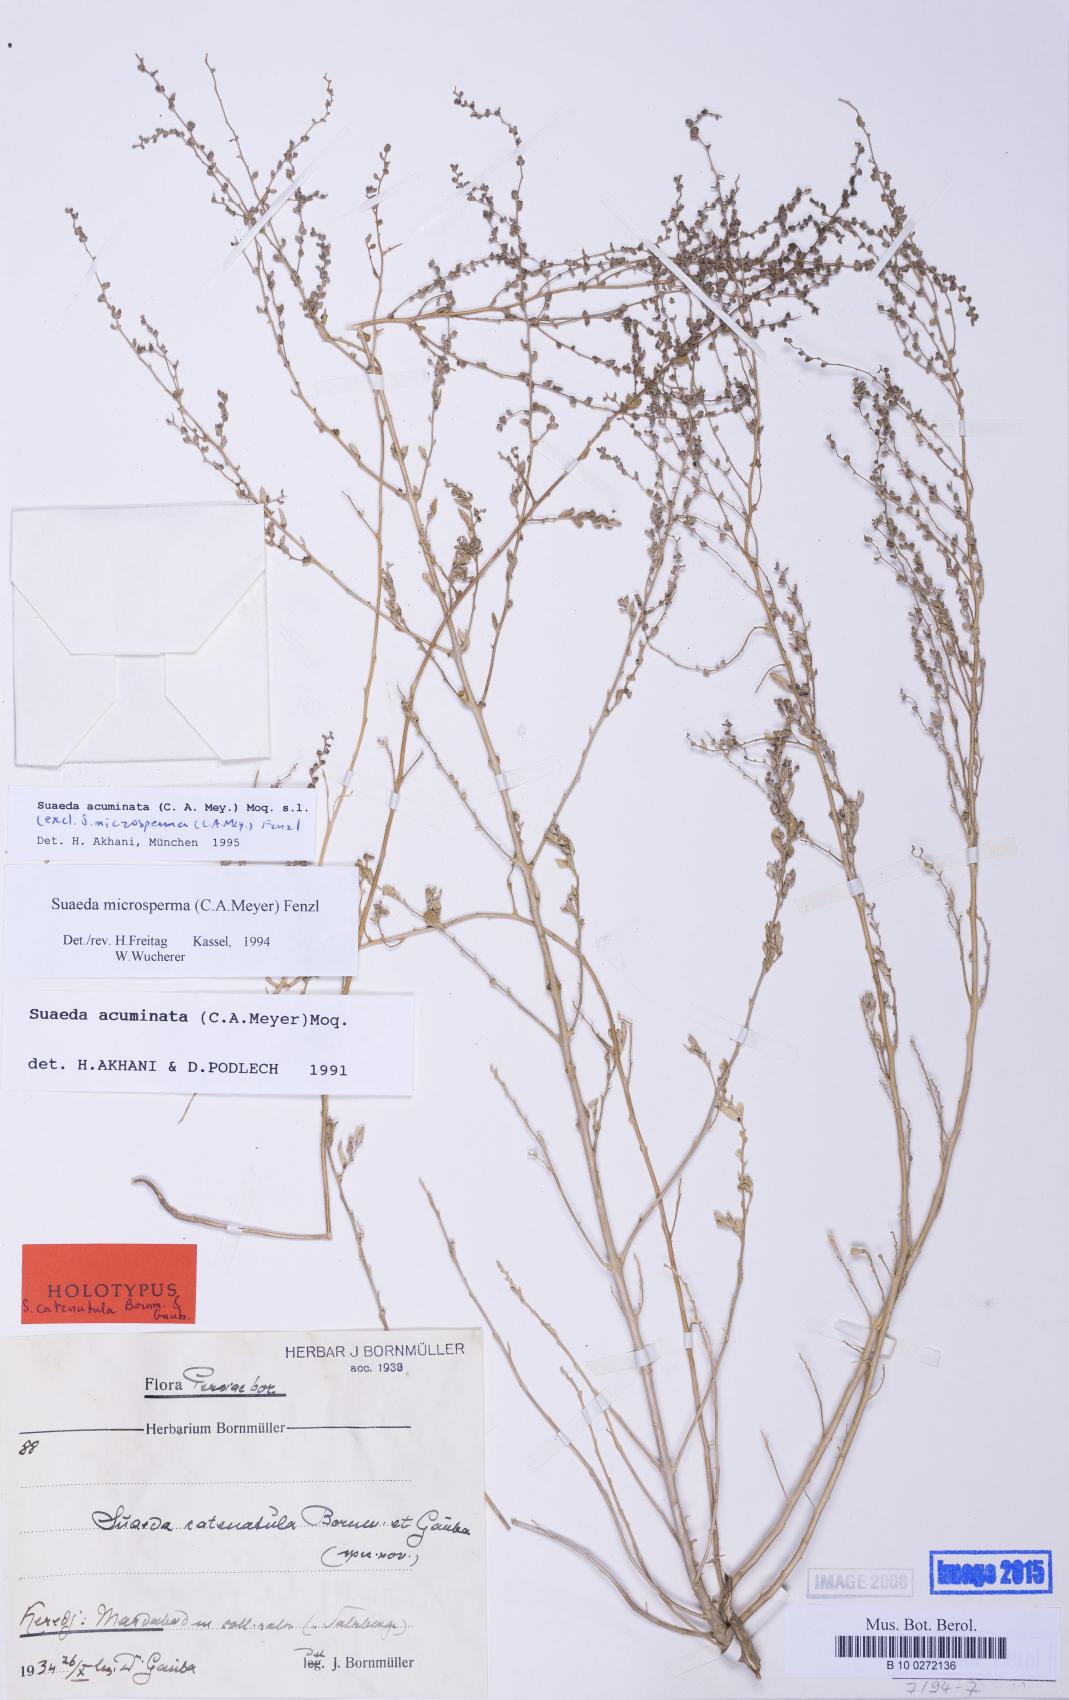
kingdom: Plantae
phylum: Tracheophyta
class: Magnoliopsida
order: Caryophyllales
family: Amaranthaceae
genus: Suaeda
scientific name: Suaeda acuminata
